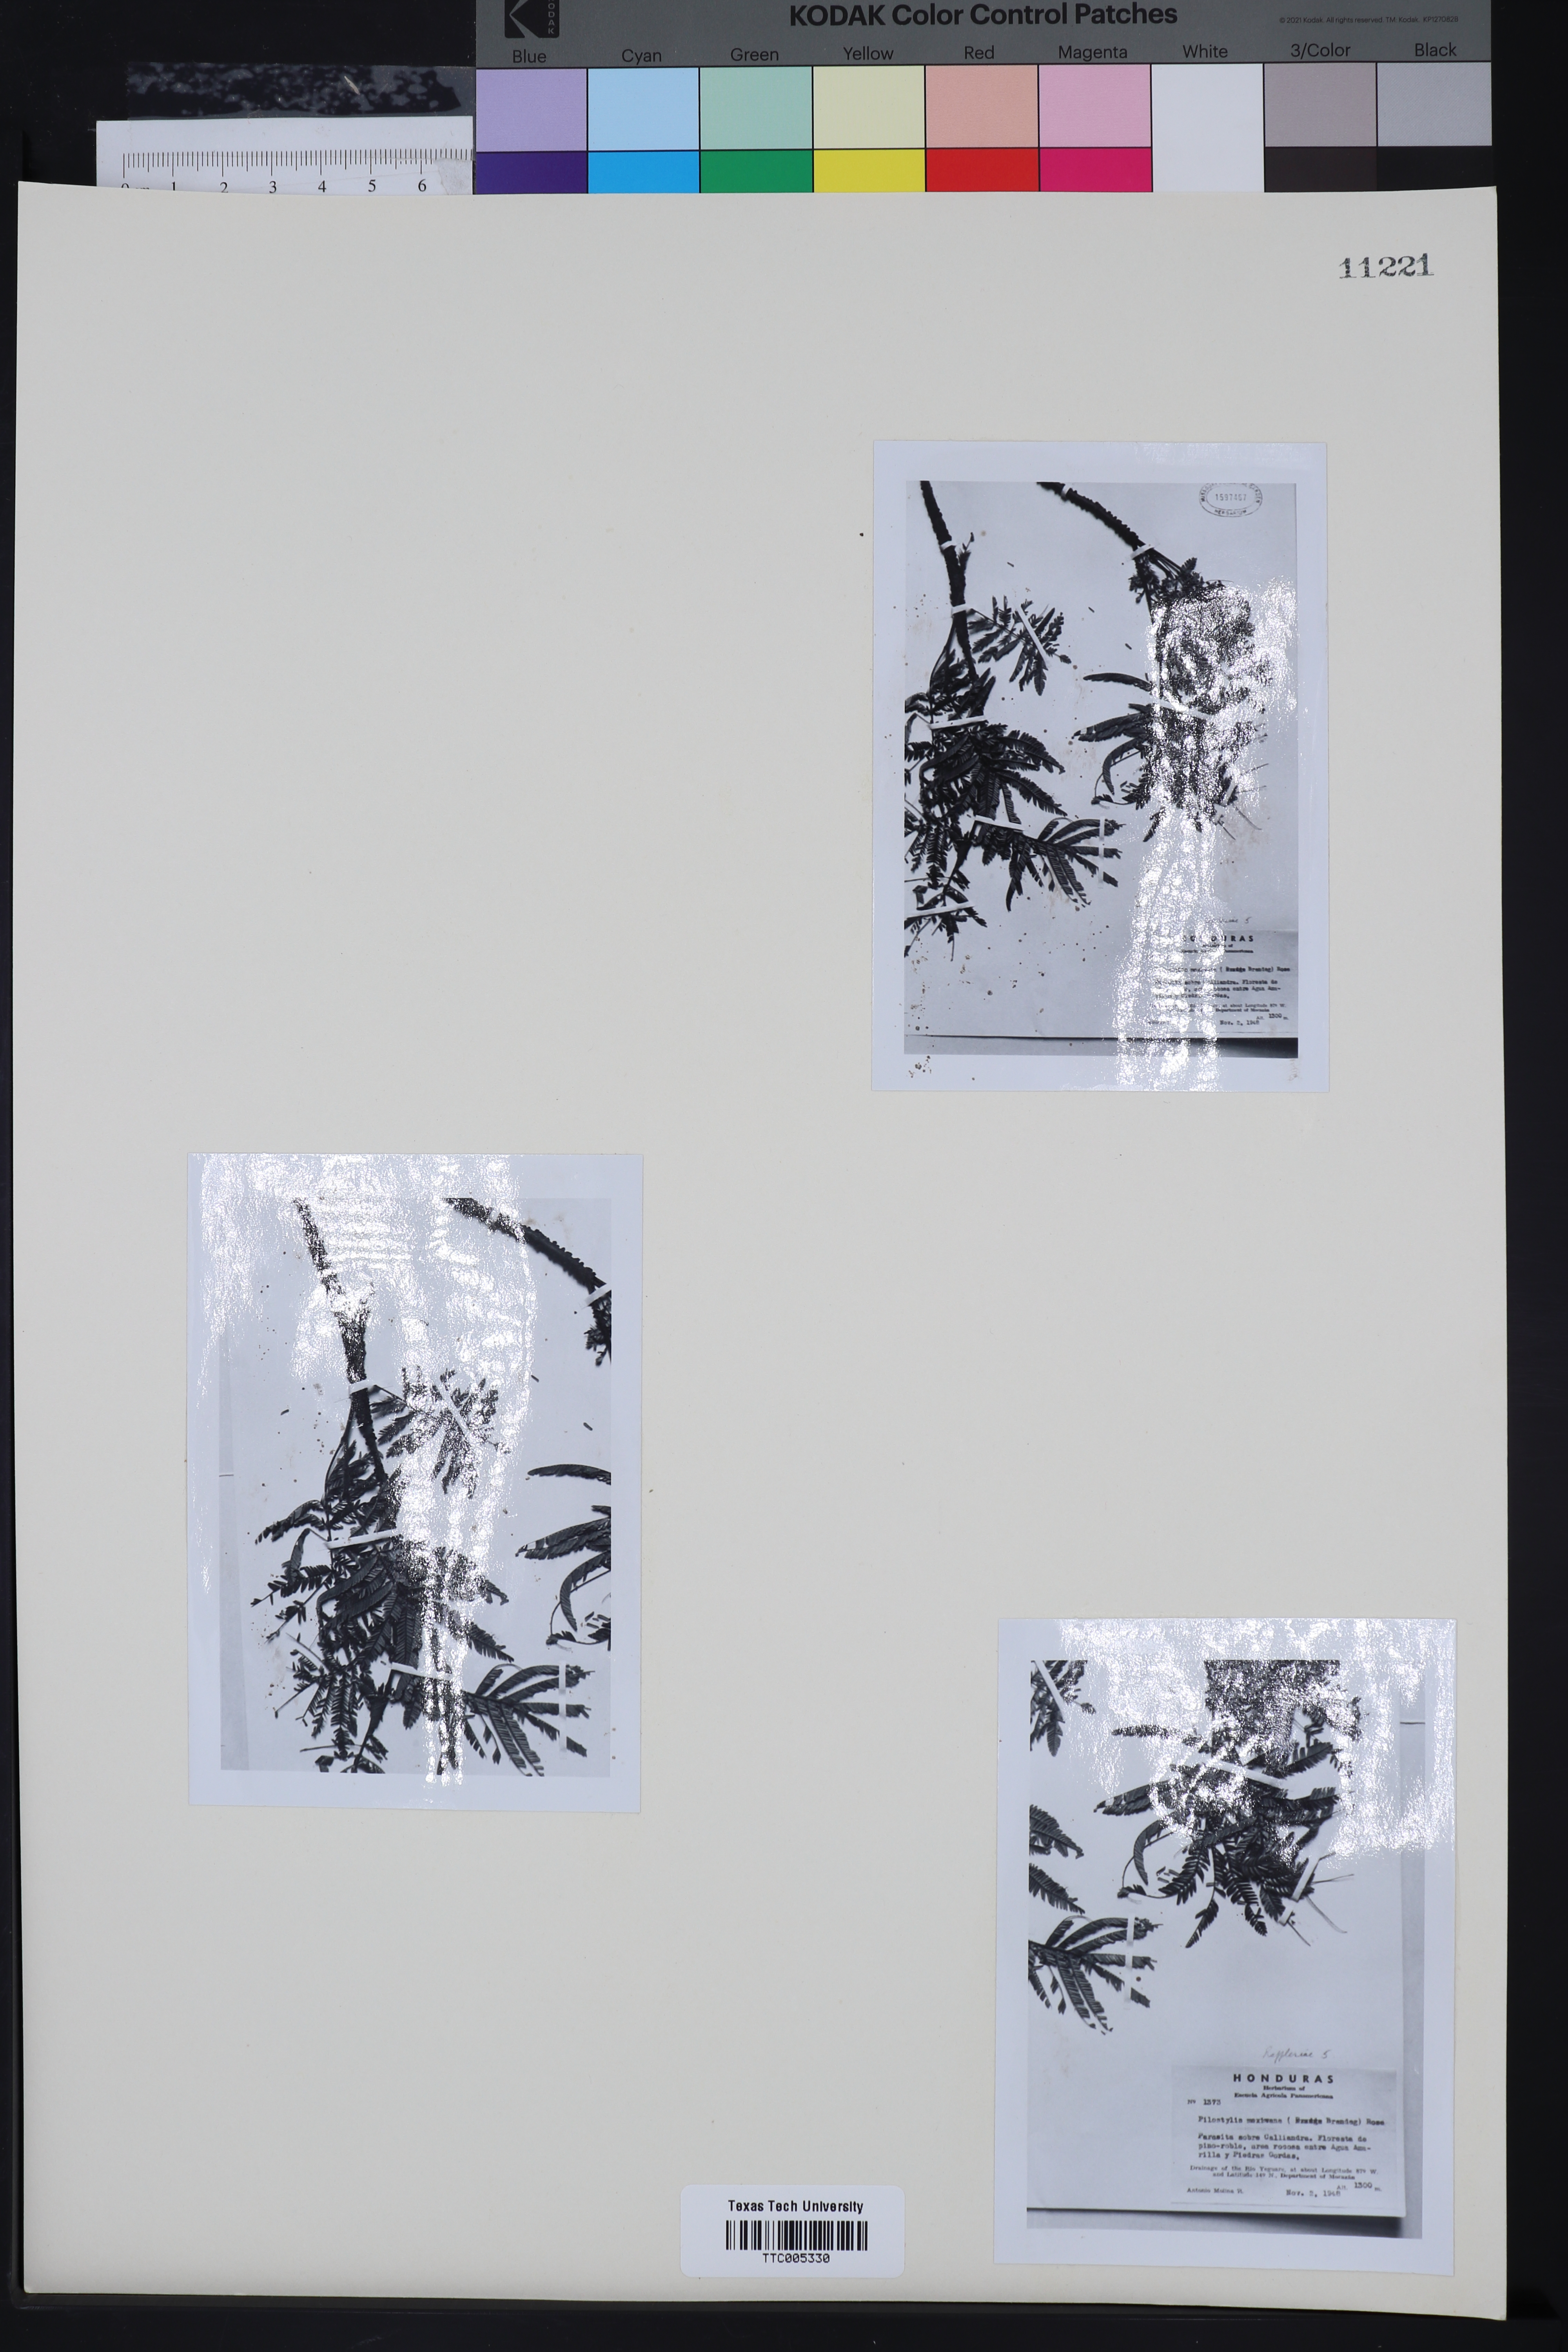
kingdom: Plantae
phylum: Tracheophyta
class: Magnoliopsida
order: Cucurbitales
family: Apodanthaceae
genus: Pilostyles
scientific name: Pilostyles mexicana
